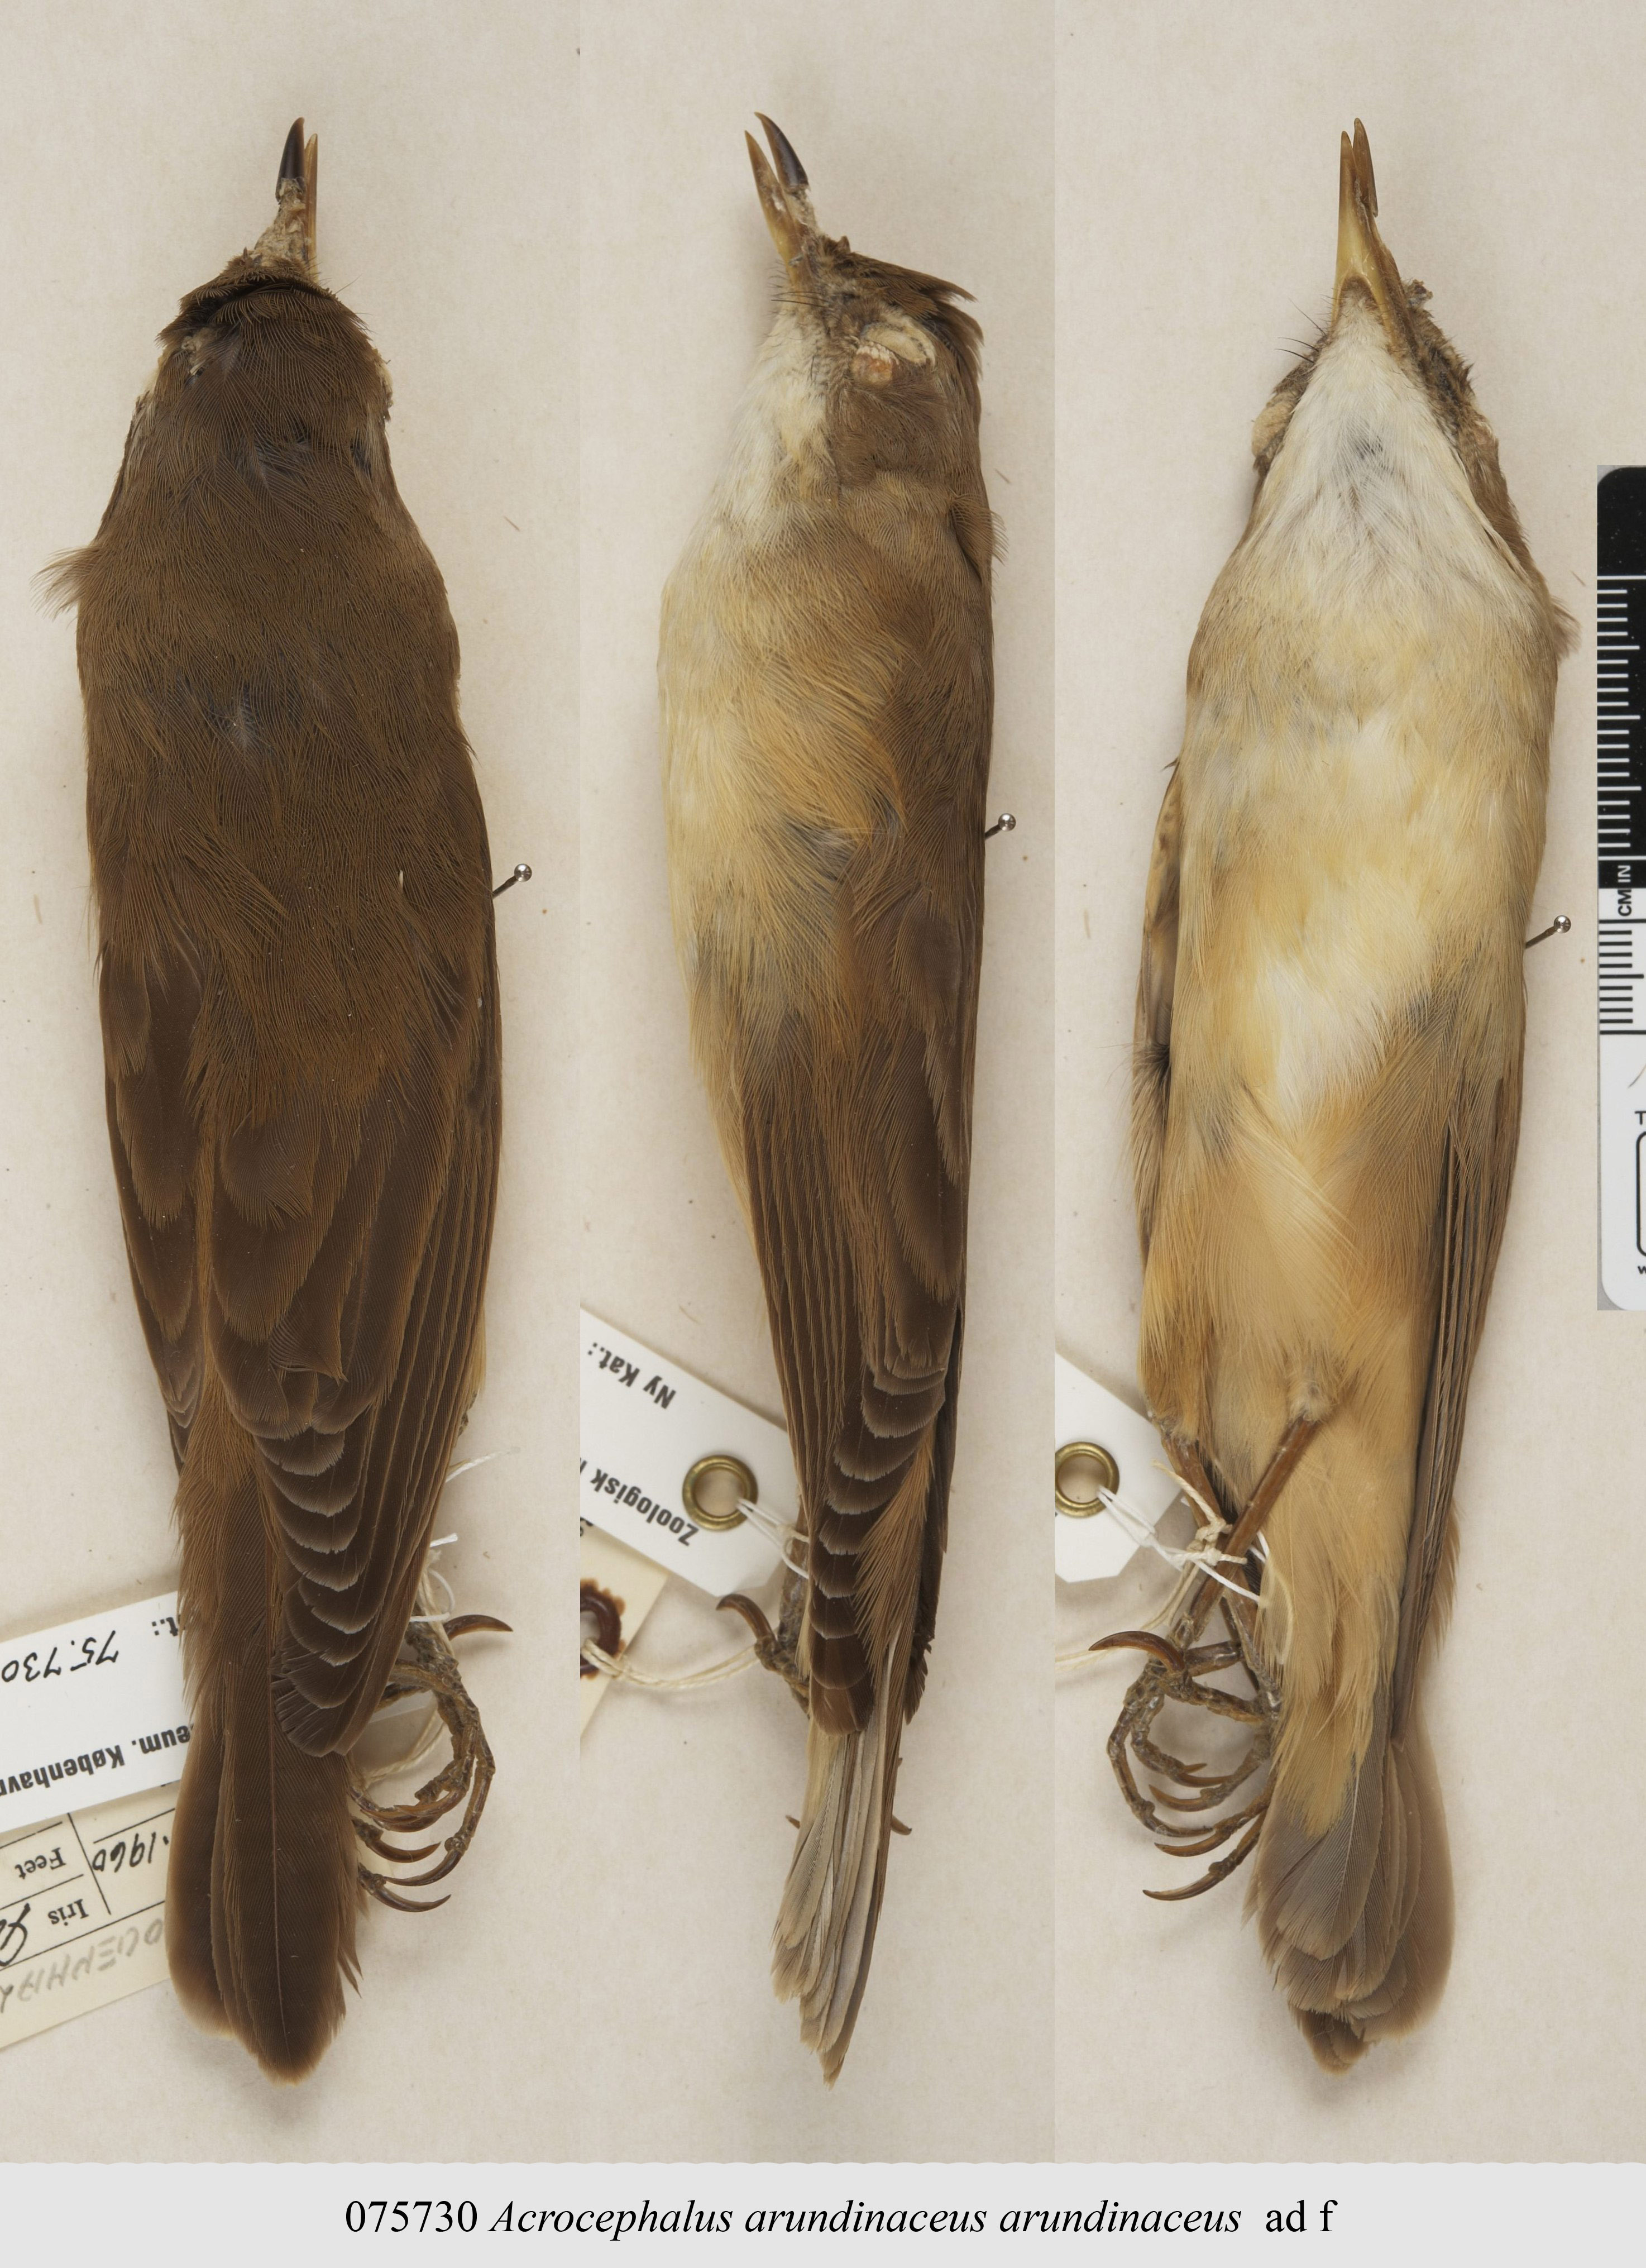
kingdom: Animalia
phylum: Chordata
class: Aves
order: Passeriformes
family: Acrocephalidae
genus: Acrocephalus
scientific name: Acrocephalus arundinaceus
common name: Great reed warbler
